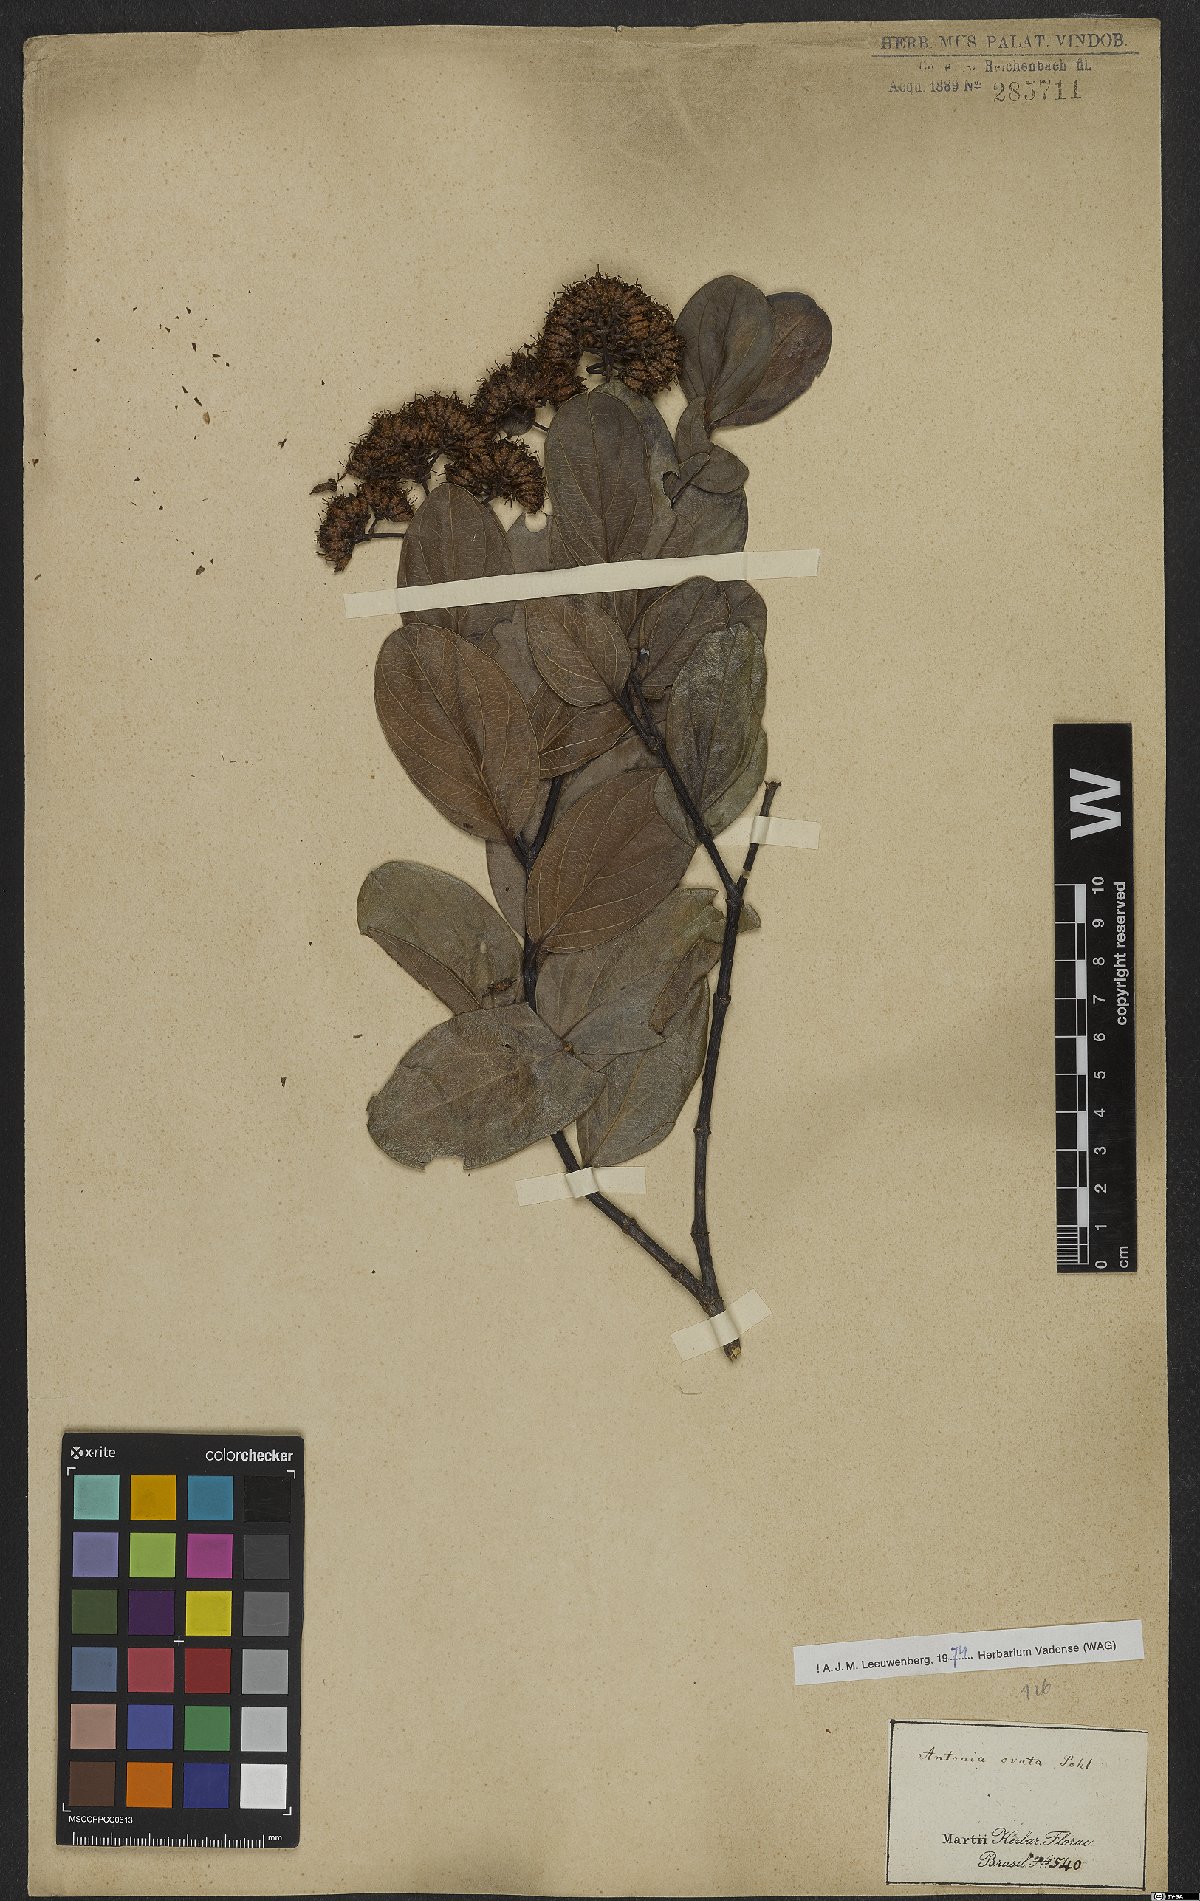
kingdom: Plantae
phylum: Tracheophyta
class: Magnoliopsida
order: Gentianales
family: Loganiaceae
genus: Antonia
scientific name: Antonia ovata
